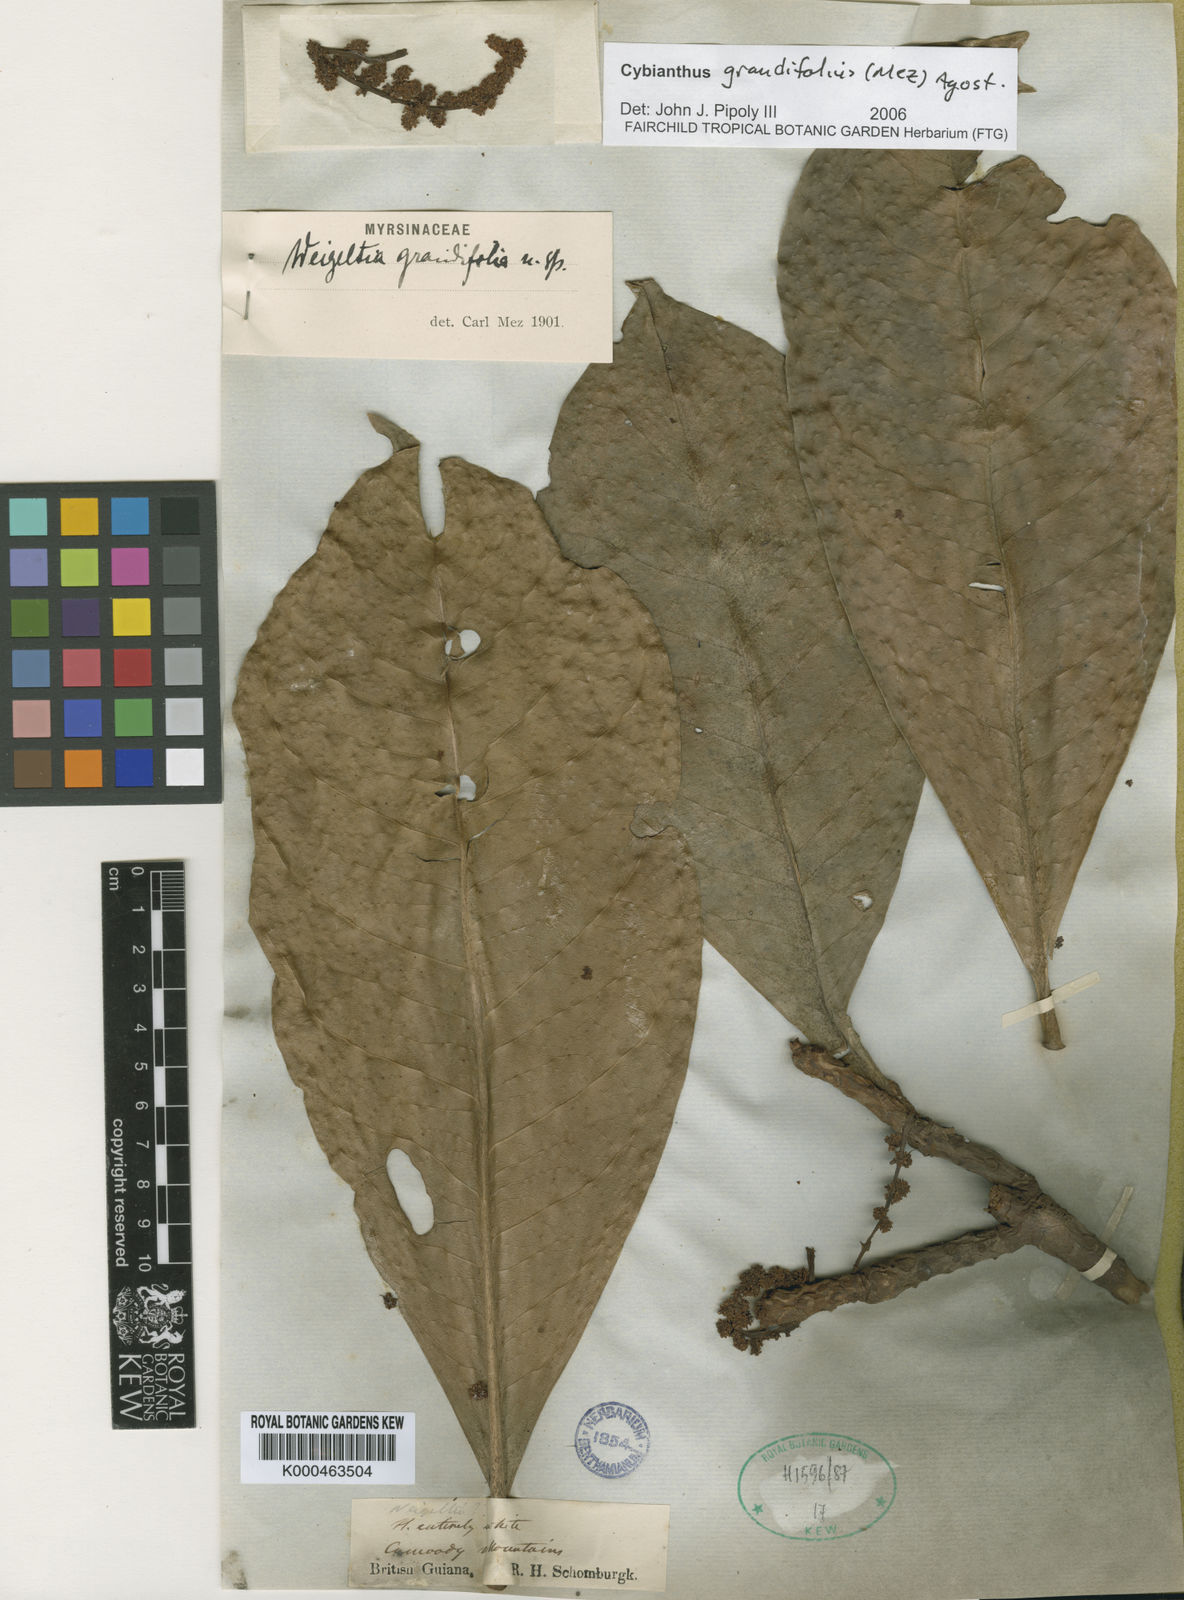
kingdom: Plantae
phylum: Tracheophyta
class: Magnoliopsida
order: Ericales
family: Primulaceae
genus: Cybianthus
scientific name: Cybianthus grandifolius
